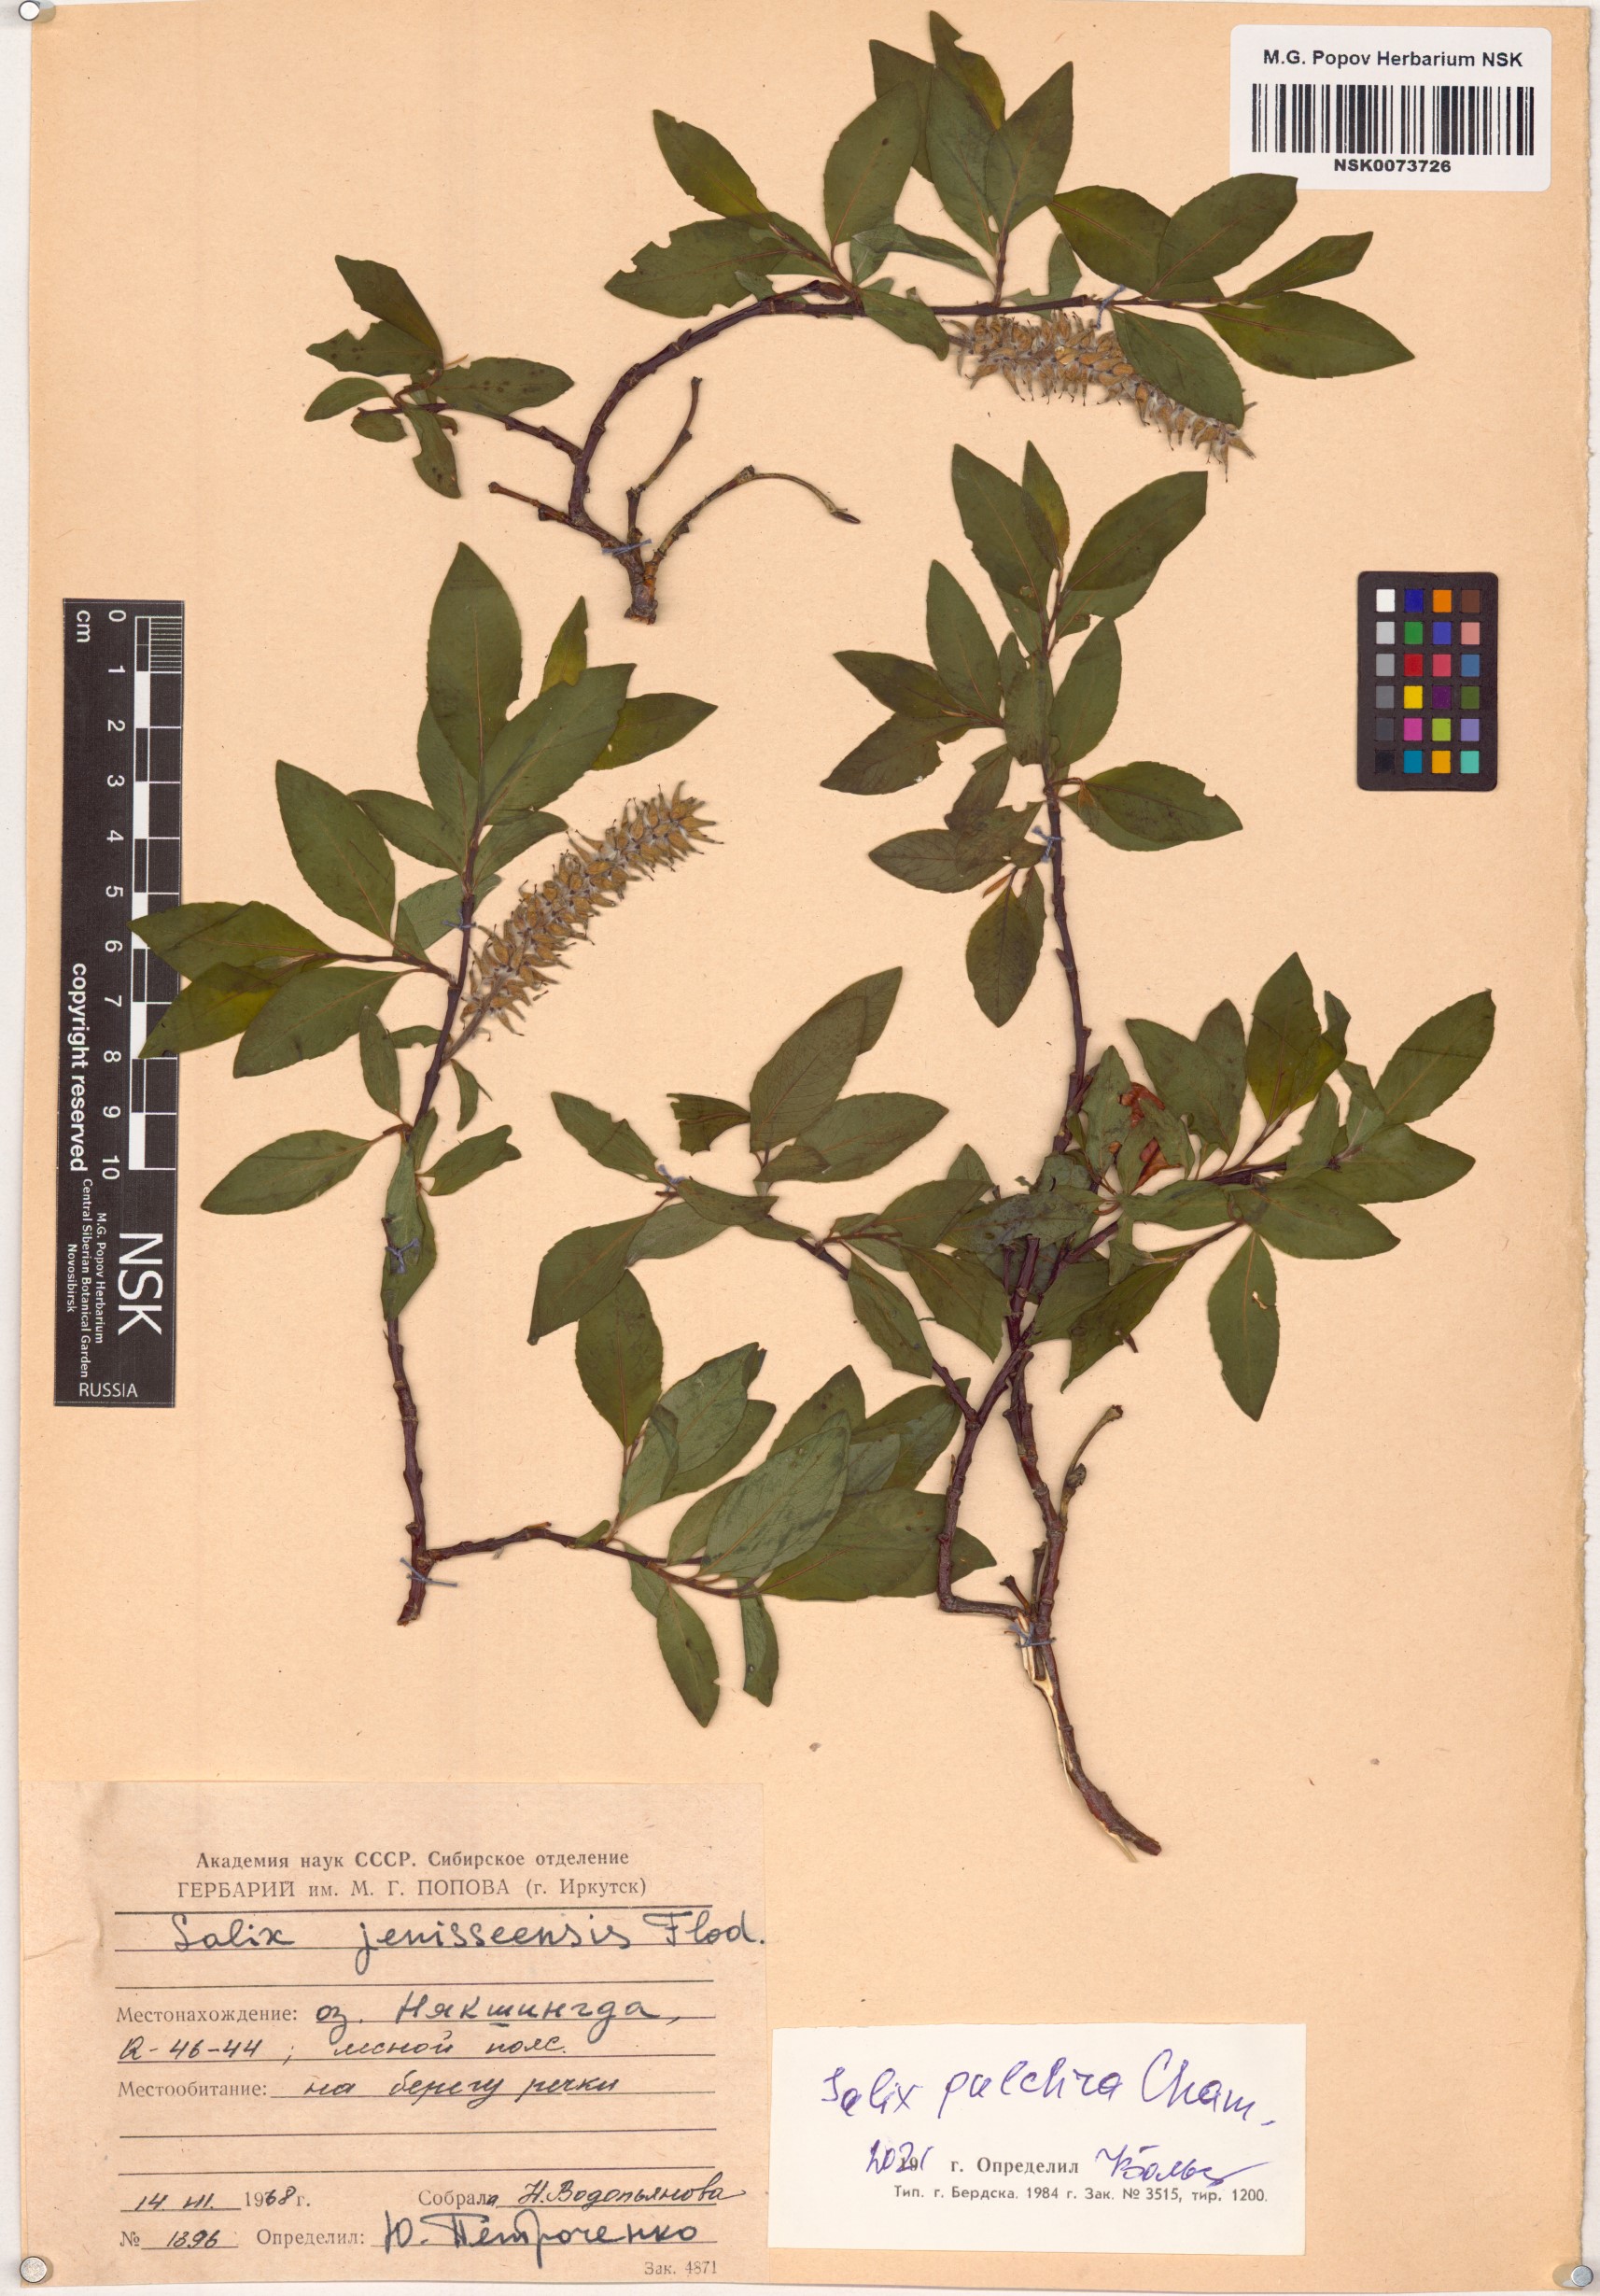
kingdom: Plantae
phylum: Tracheophyta
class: Magnoliopsida
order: Malpighiales
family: Salicaceae
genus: Salix
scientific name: Salix pulchra
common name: Diamond-leaved willow
